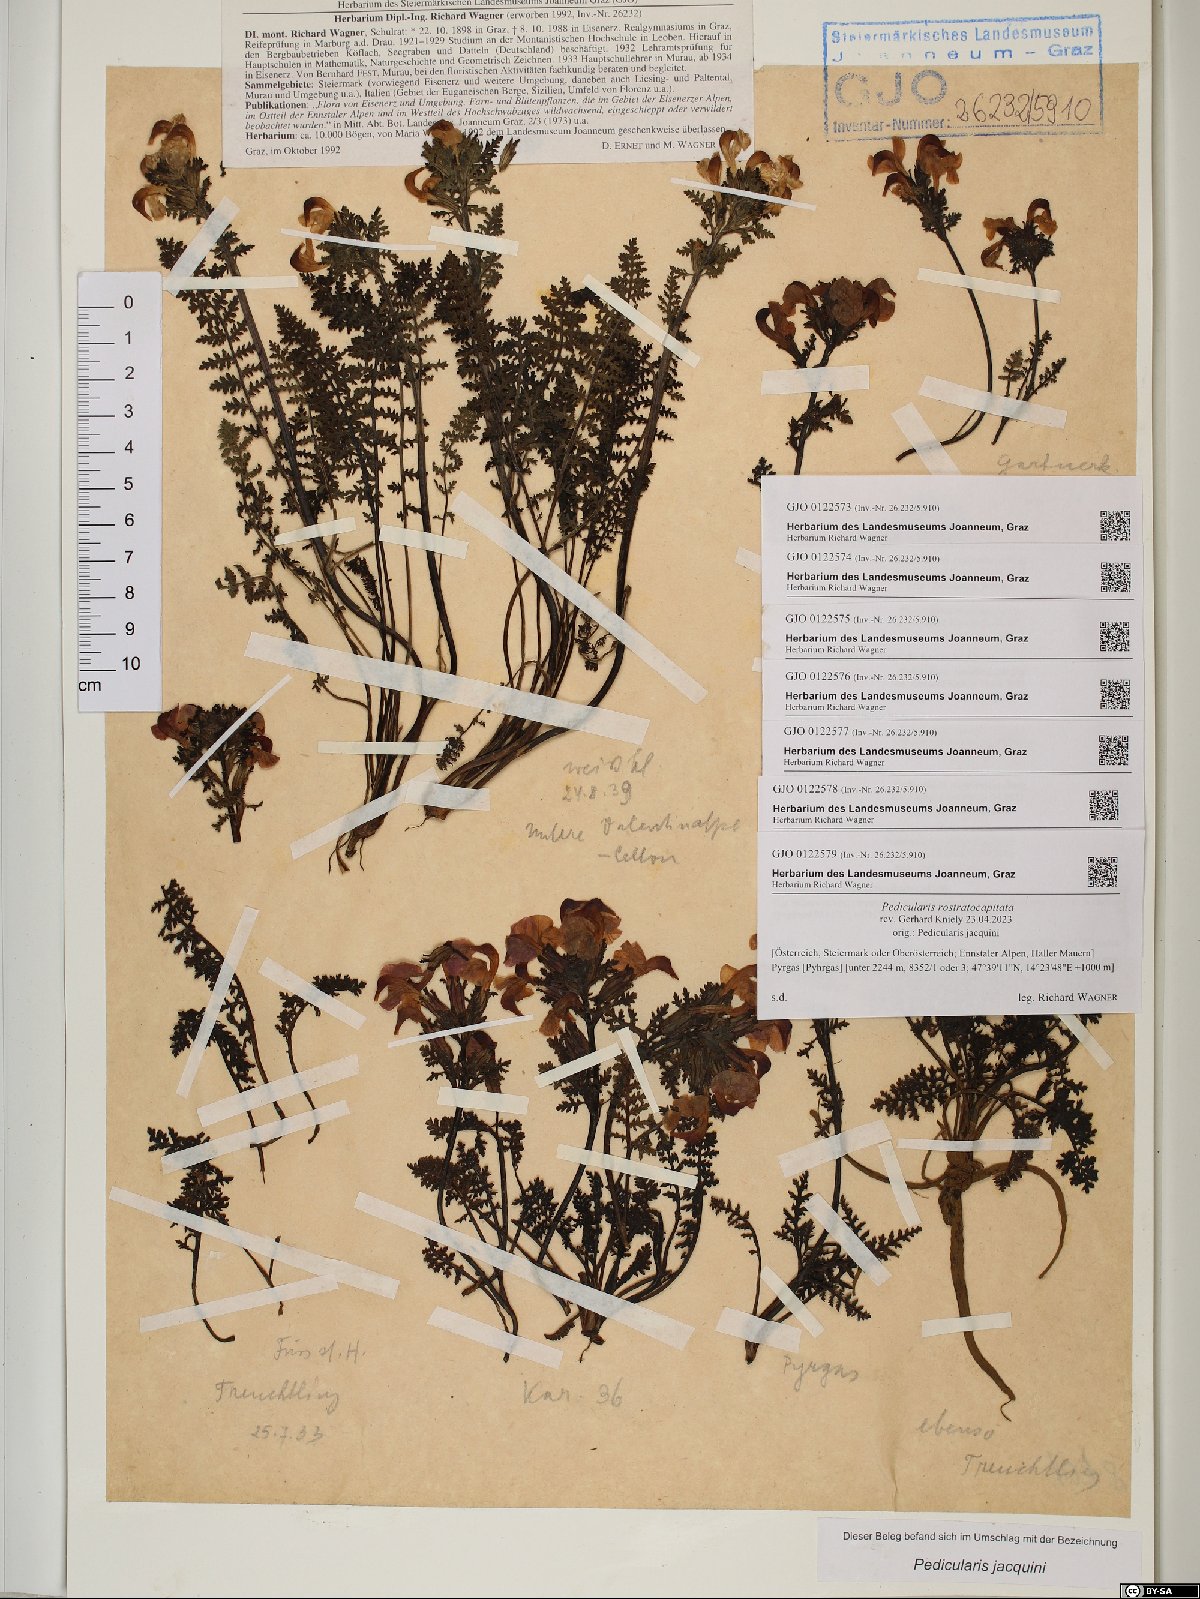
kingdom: Plantae
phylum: Tracheophyta
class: Magnoliopsida
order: Lamiales
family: Orobanchaceae
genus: Pedicularis
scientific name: Pedicularis rostratocapitata
